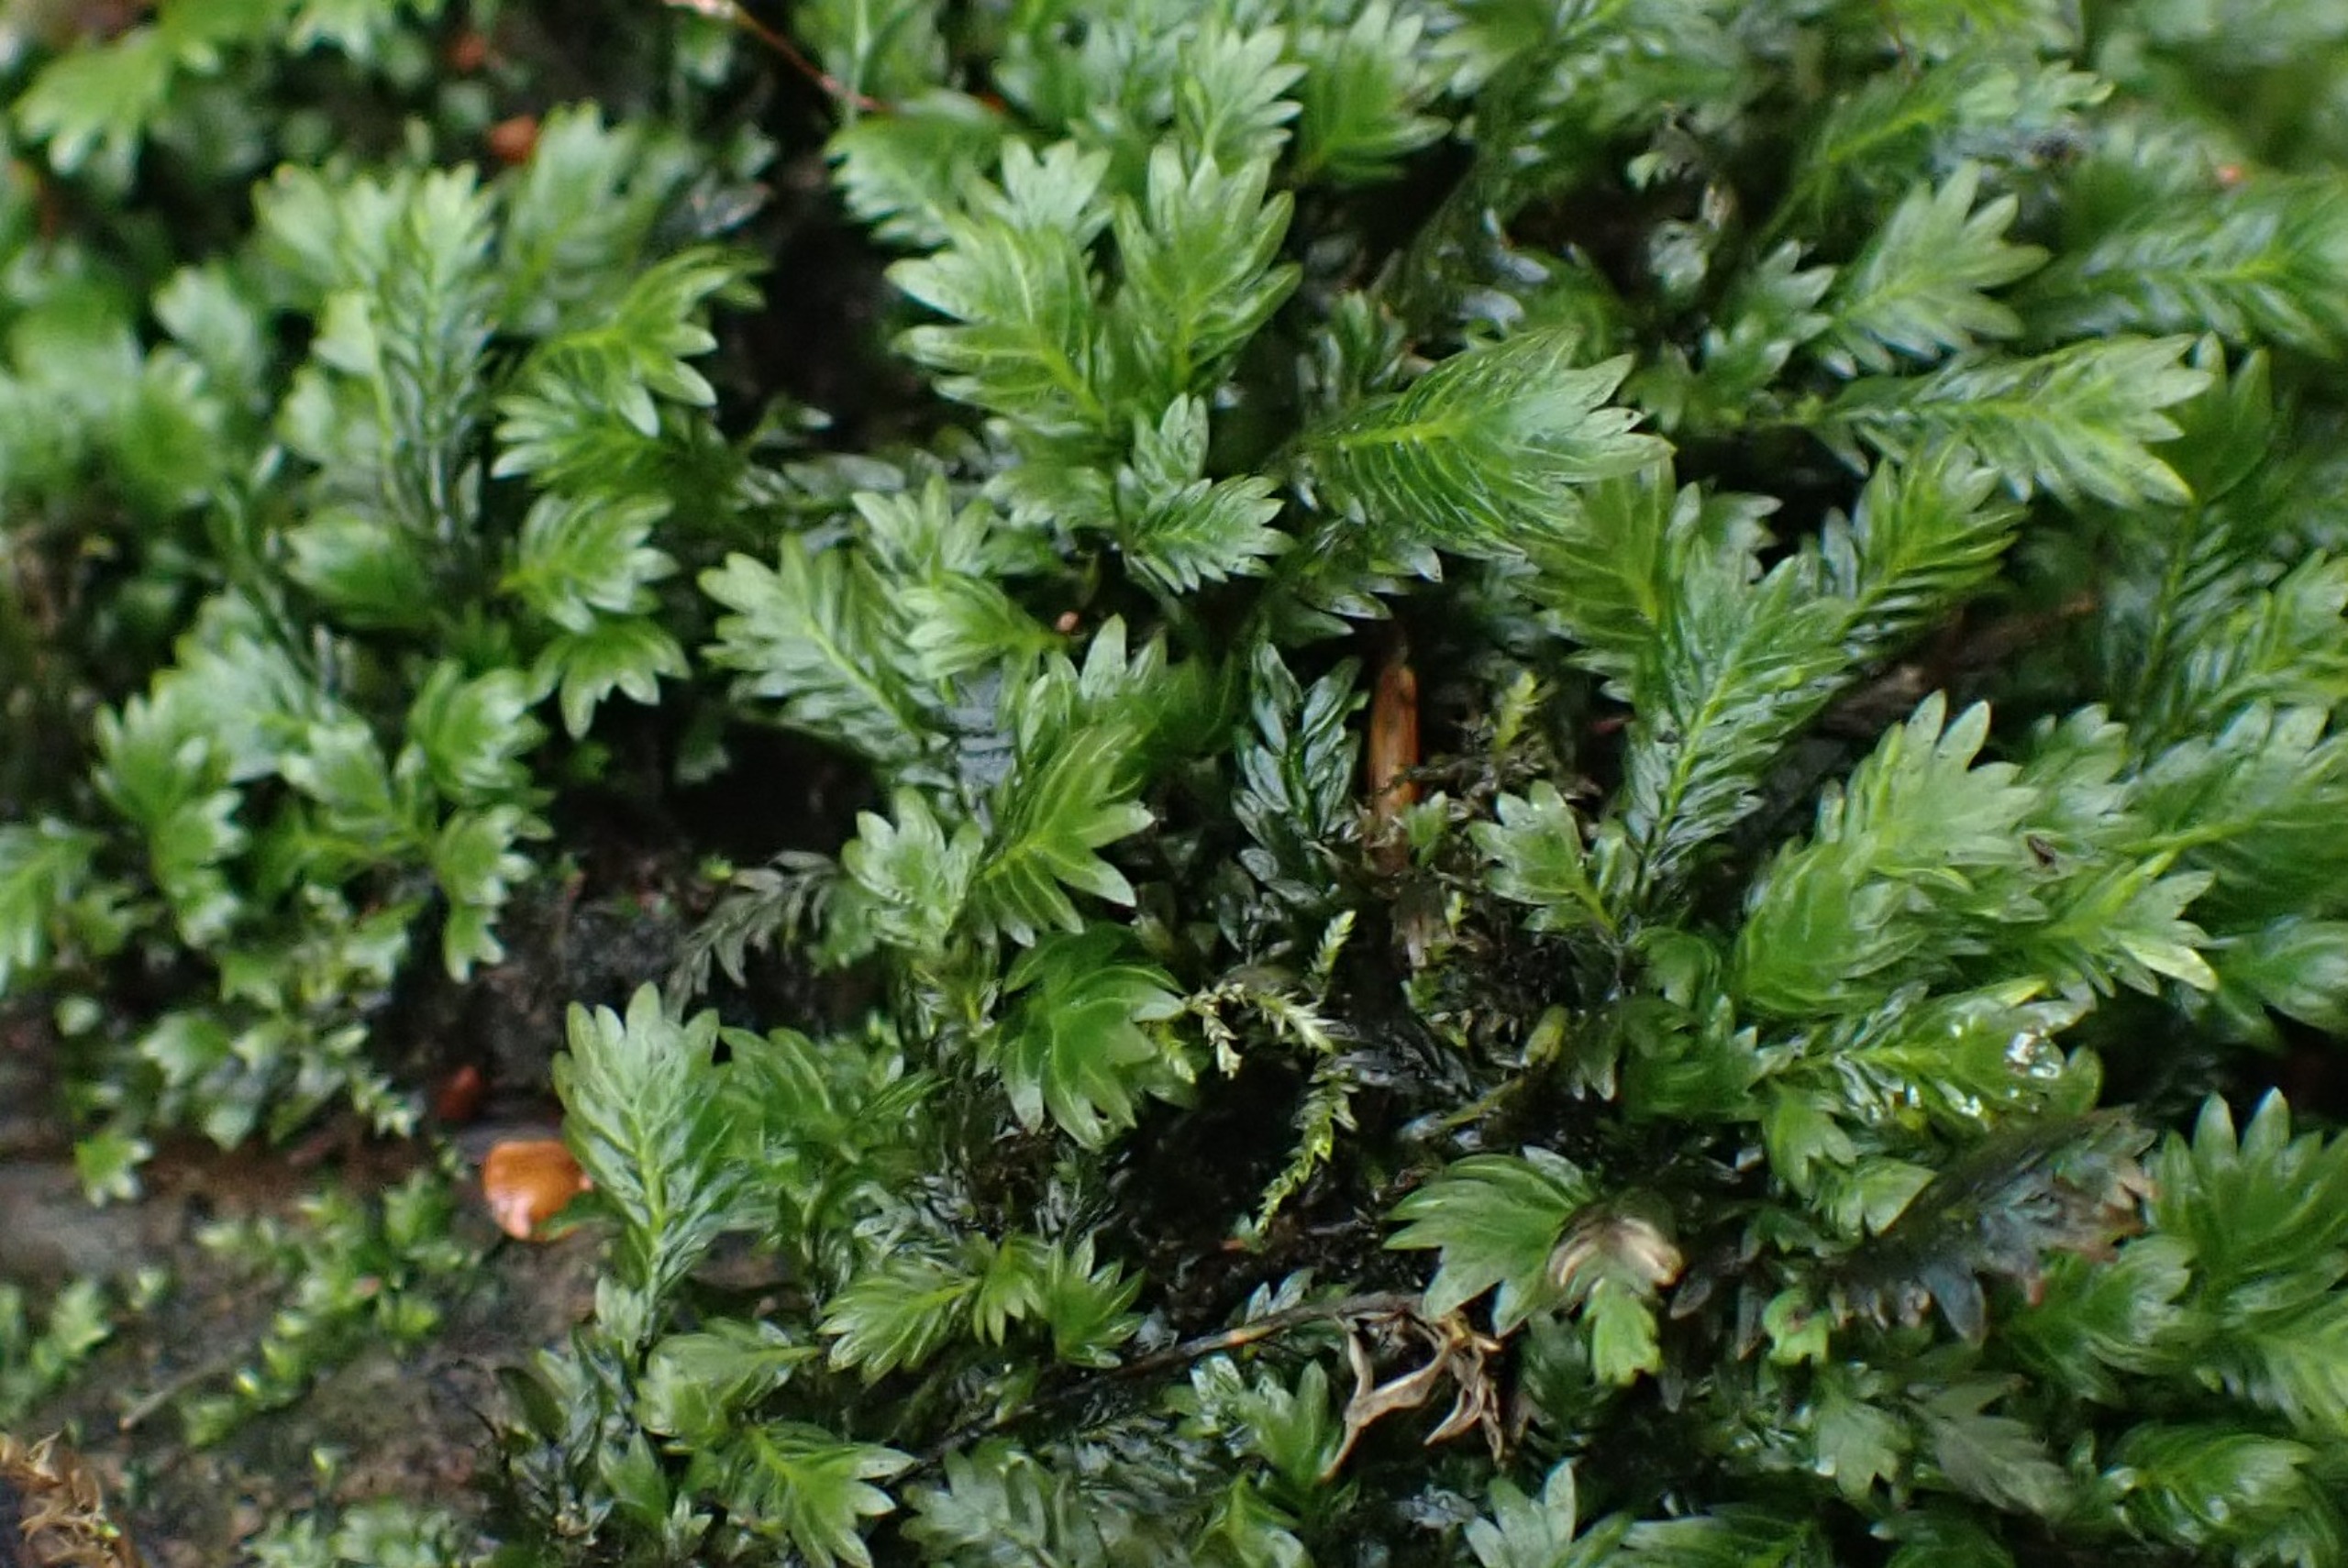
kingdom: Plantae
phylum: Bryophyta
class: Bryopsida
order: Dicranales
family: Fissidentaceae
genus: Fissidens
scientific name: Fissidens adianthoides
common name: Kær-rademos
